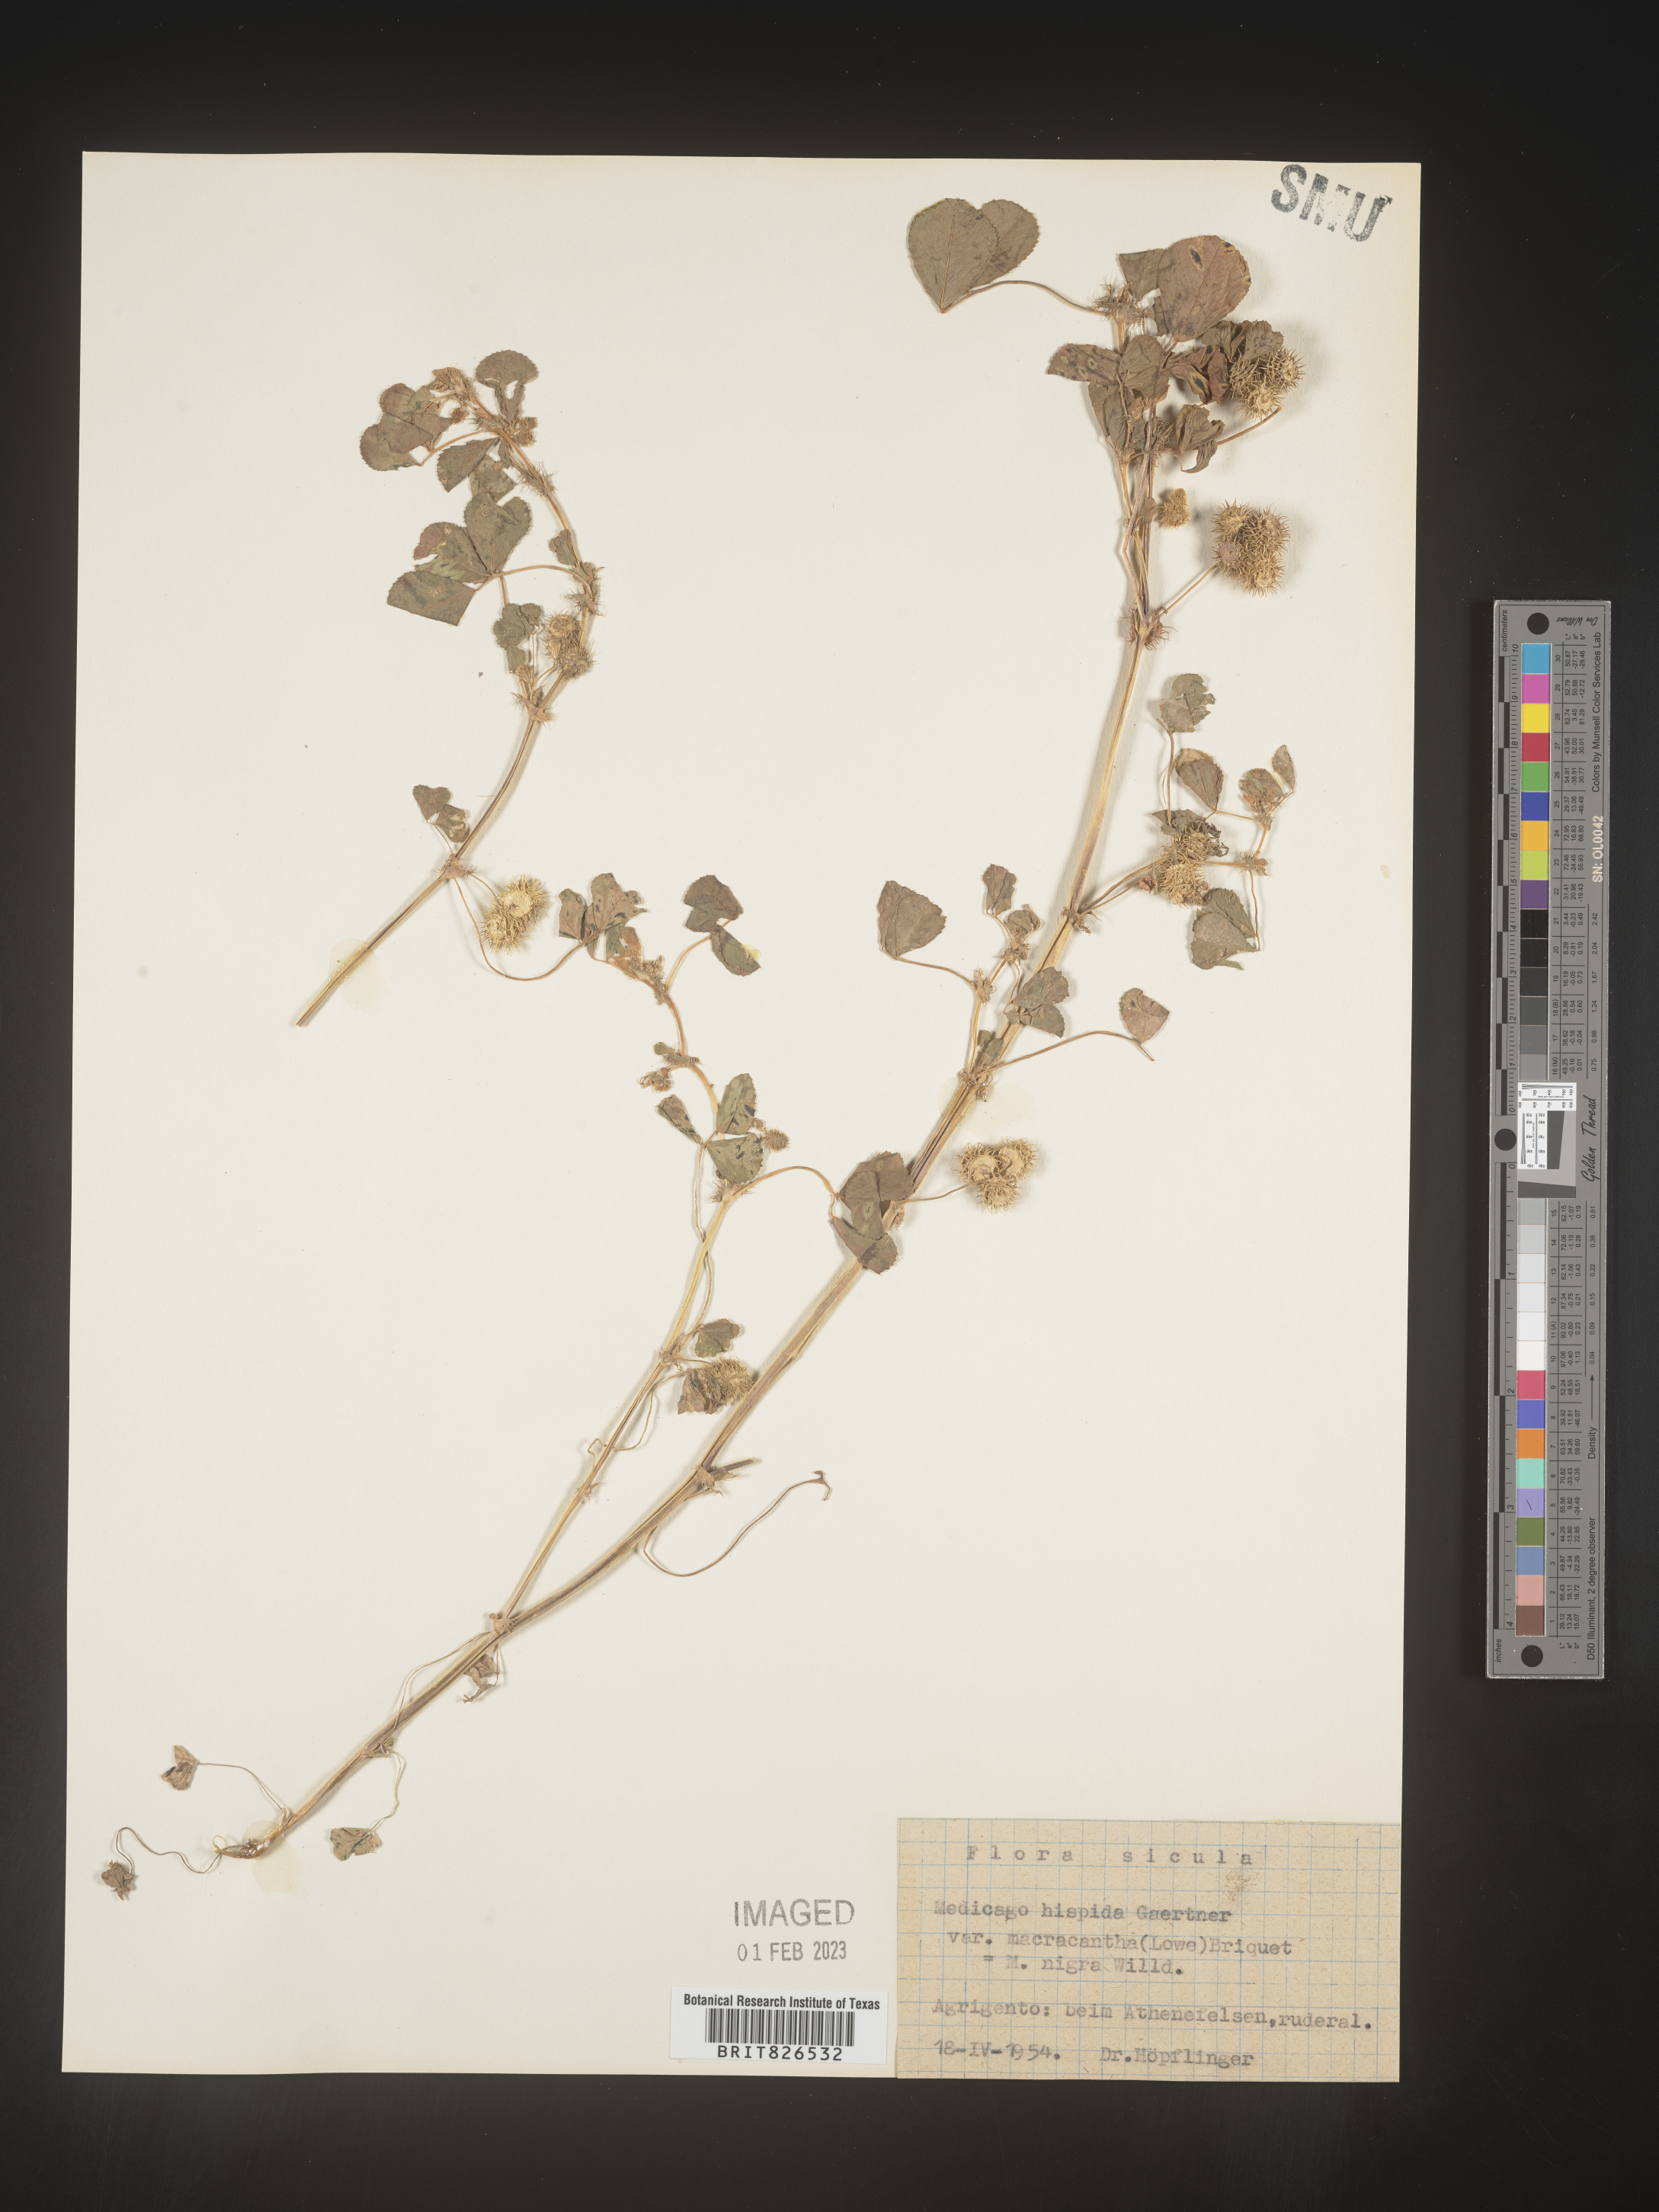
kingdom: Plantae
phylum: Tracheophyta
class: Magnoliopsida
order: Fabales
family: Fabaceae
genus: Medicago
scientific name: Medicago
